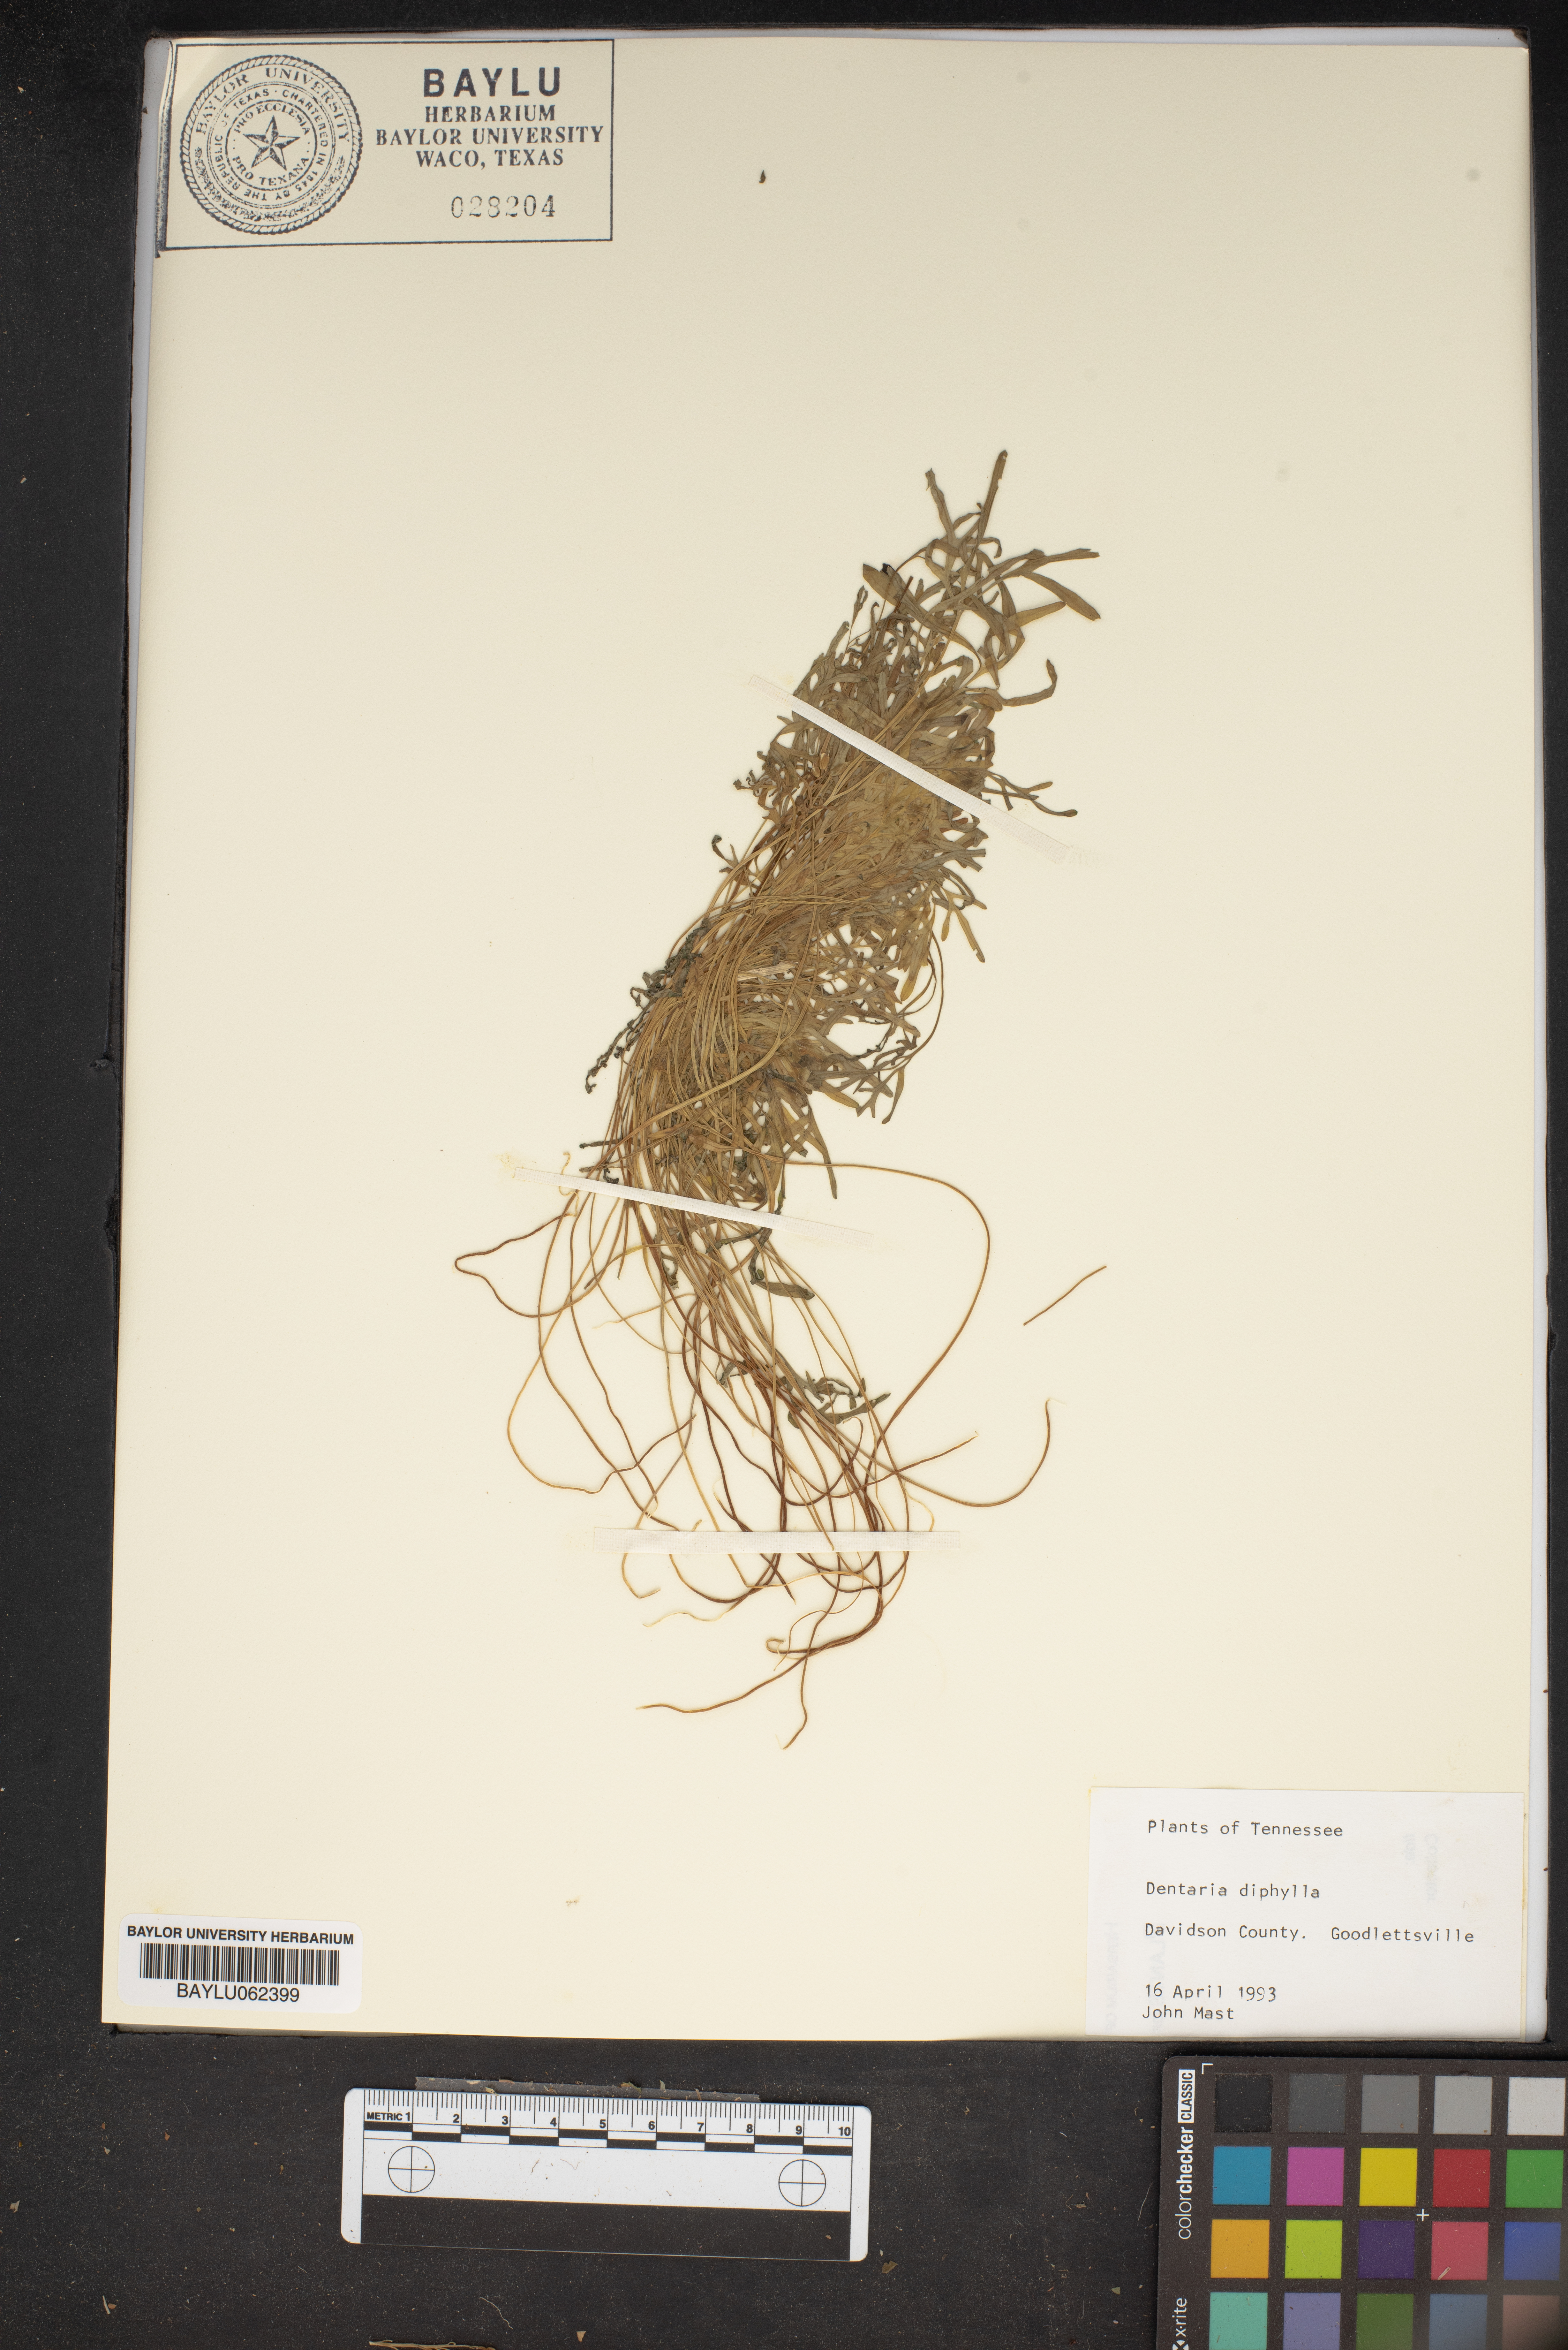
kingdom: Plantae
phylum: Tracheophyta
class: Magnoliopsida
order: Brassicales
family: Brassicaceae
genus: Cardamine
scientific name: Cardamine diphylla
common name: Broad-leaved toothwort
